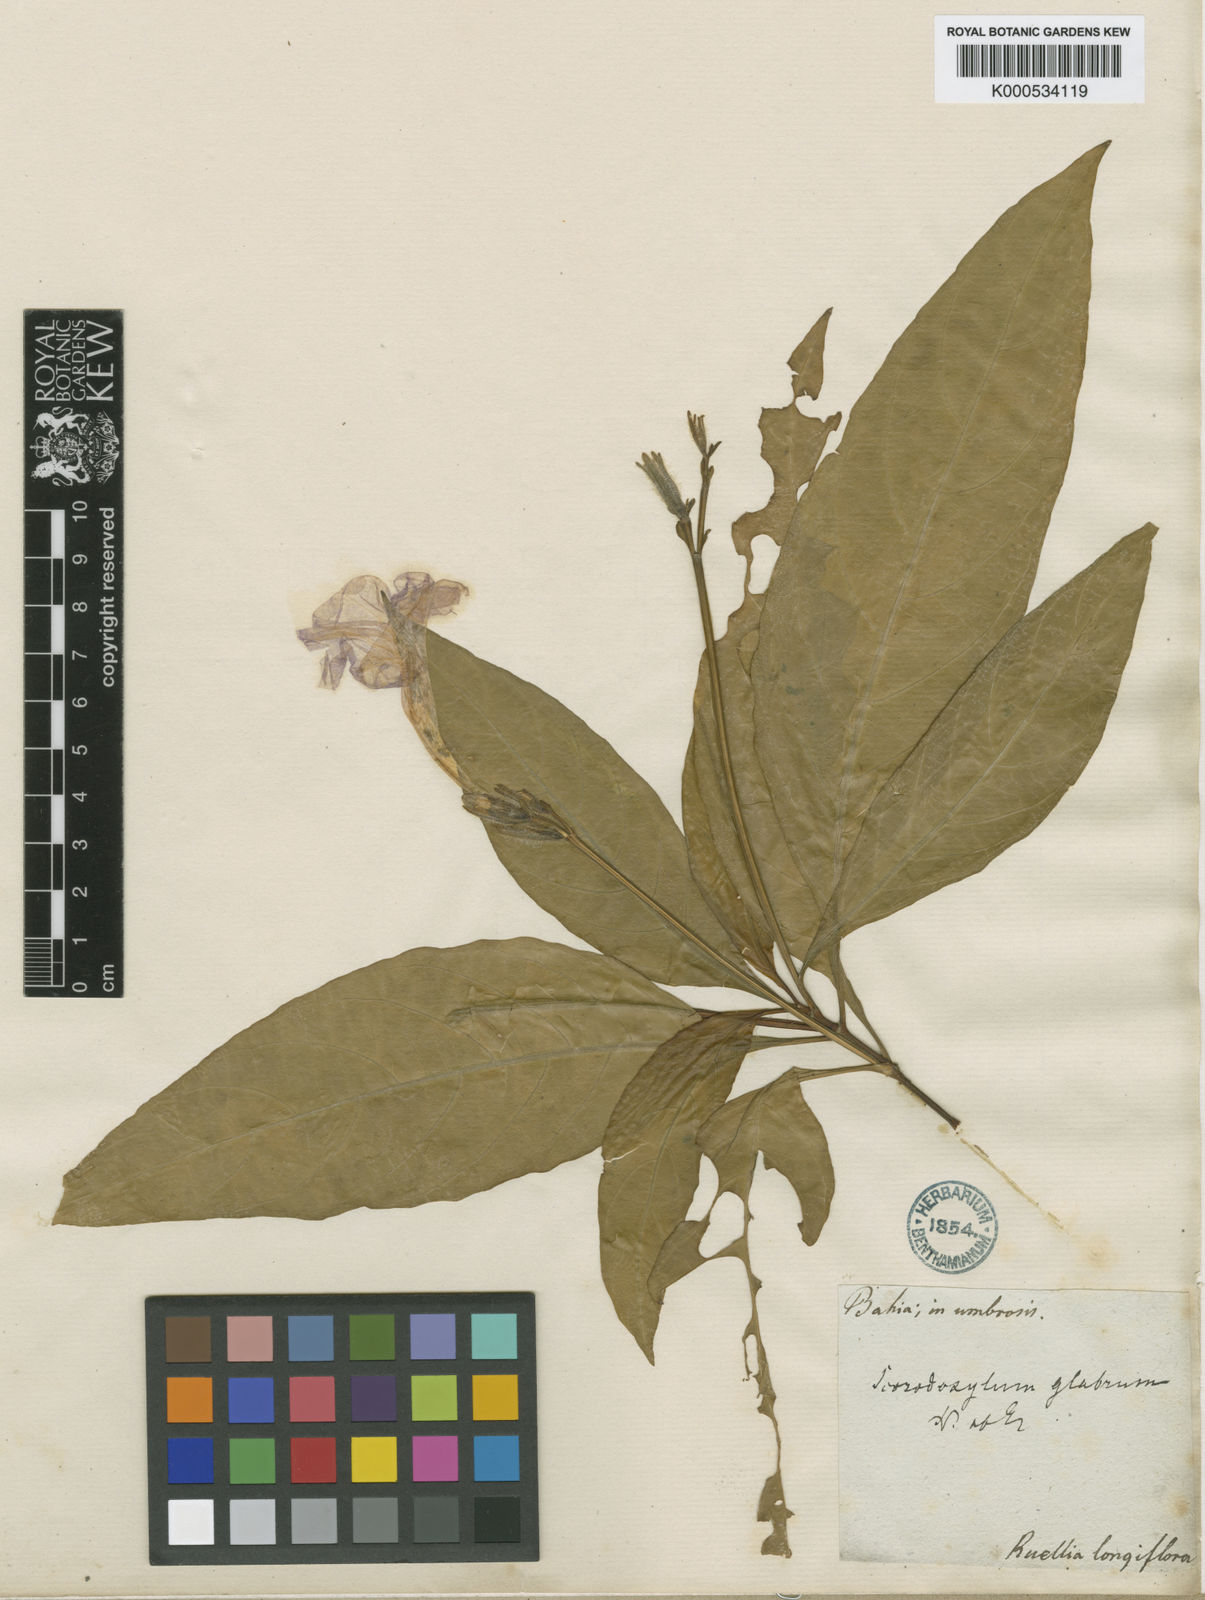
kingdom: Plantae
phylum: Tracheophyta
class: Magnoliopsida
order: Lamiales
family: Acanthaceae
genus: Ruellia
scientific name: Ruellia
